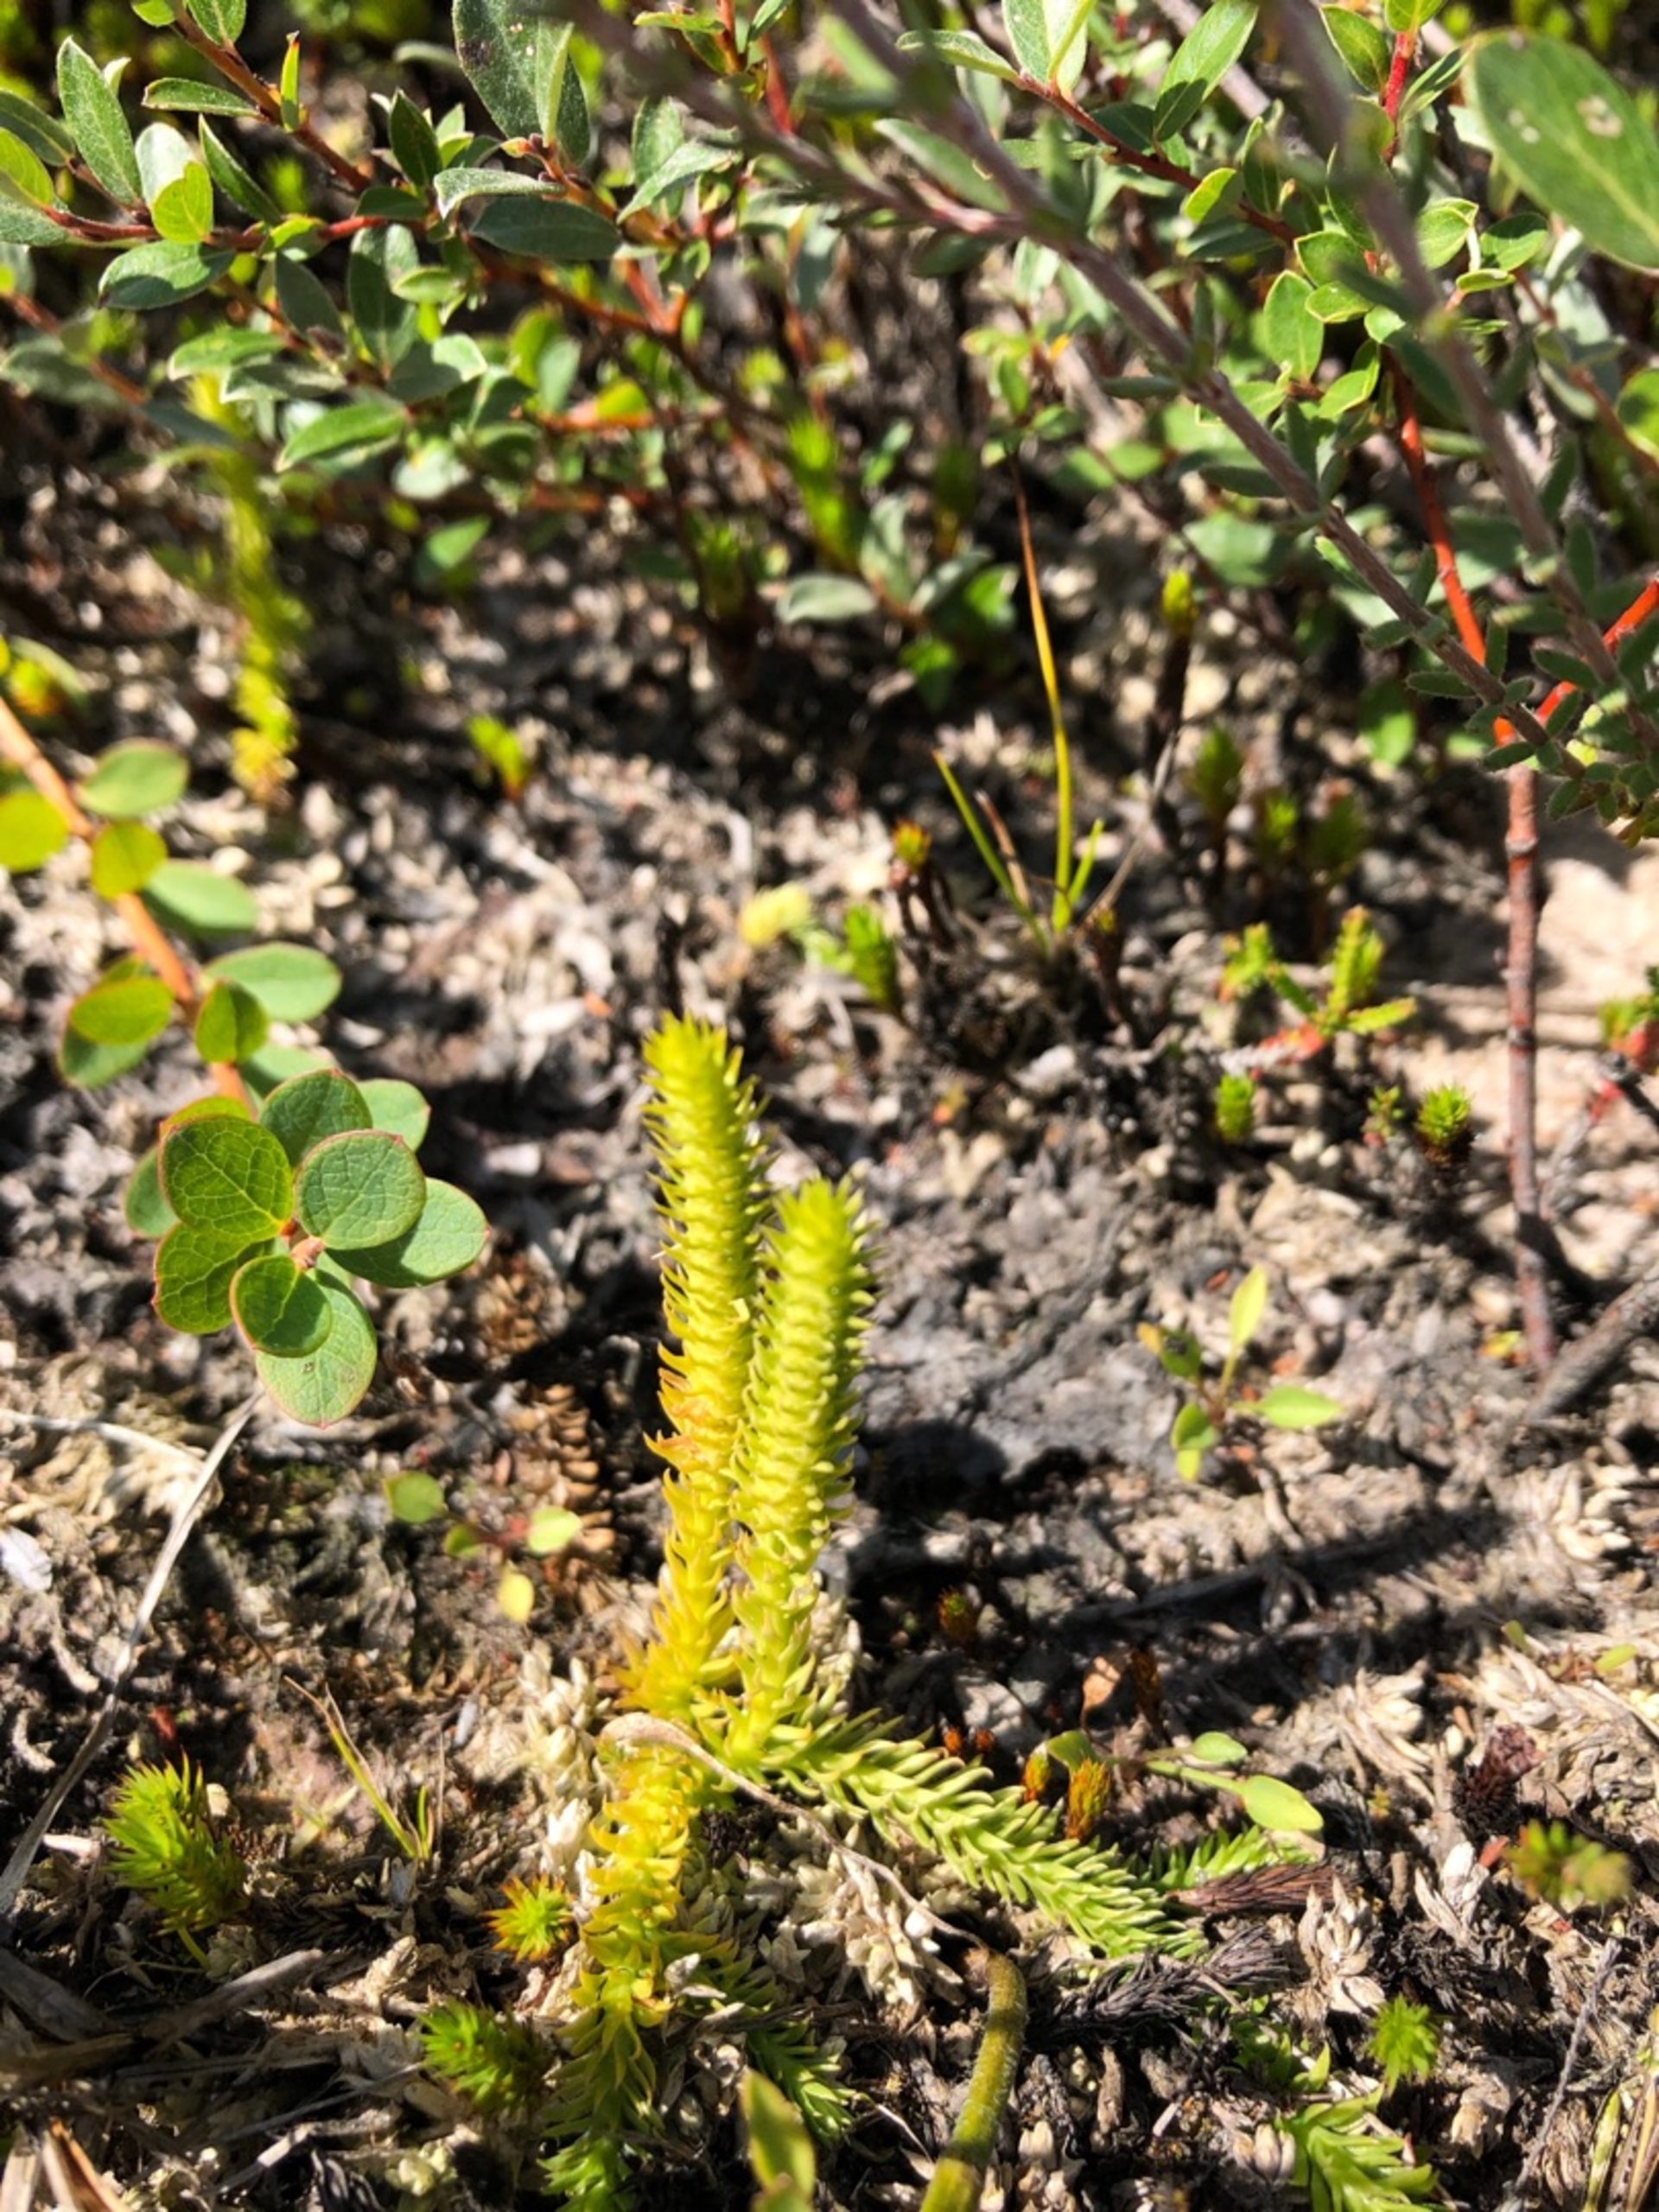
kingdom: Plantae
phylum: Tracheophyta
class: Lycopodiopsida
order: Lycopodiales
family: Lycopodiaceae
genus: Lycopodiella
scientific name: Lycopodiella inundata
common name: Liden ulvefod
